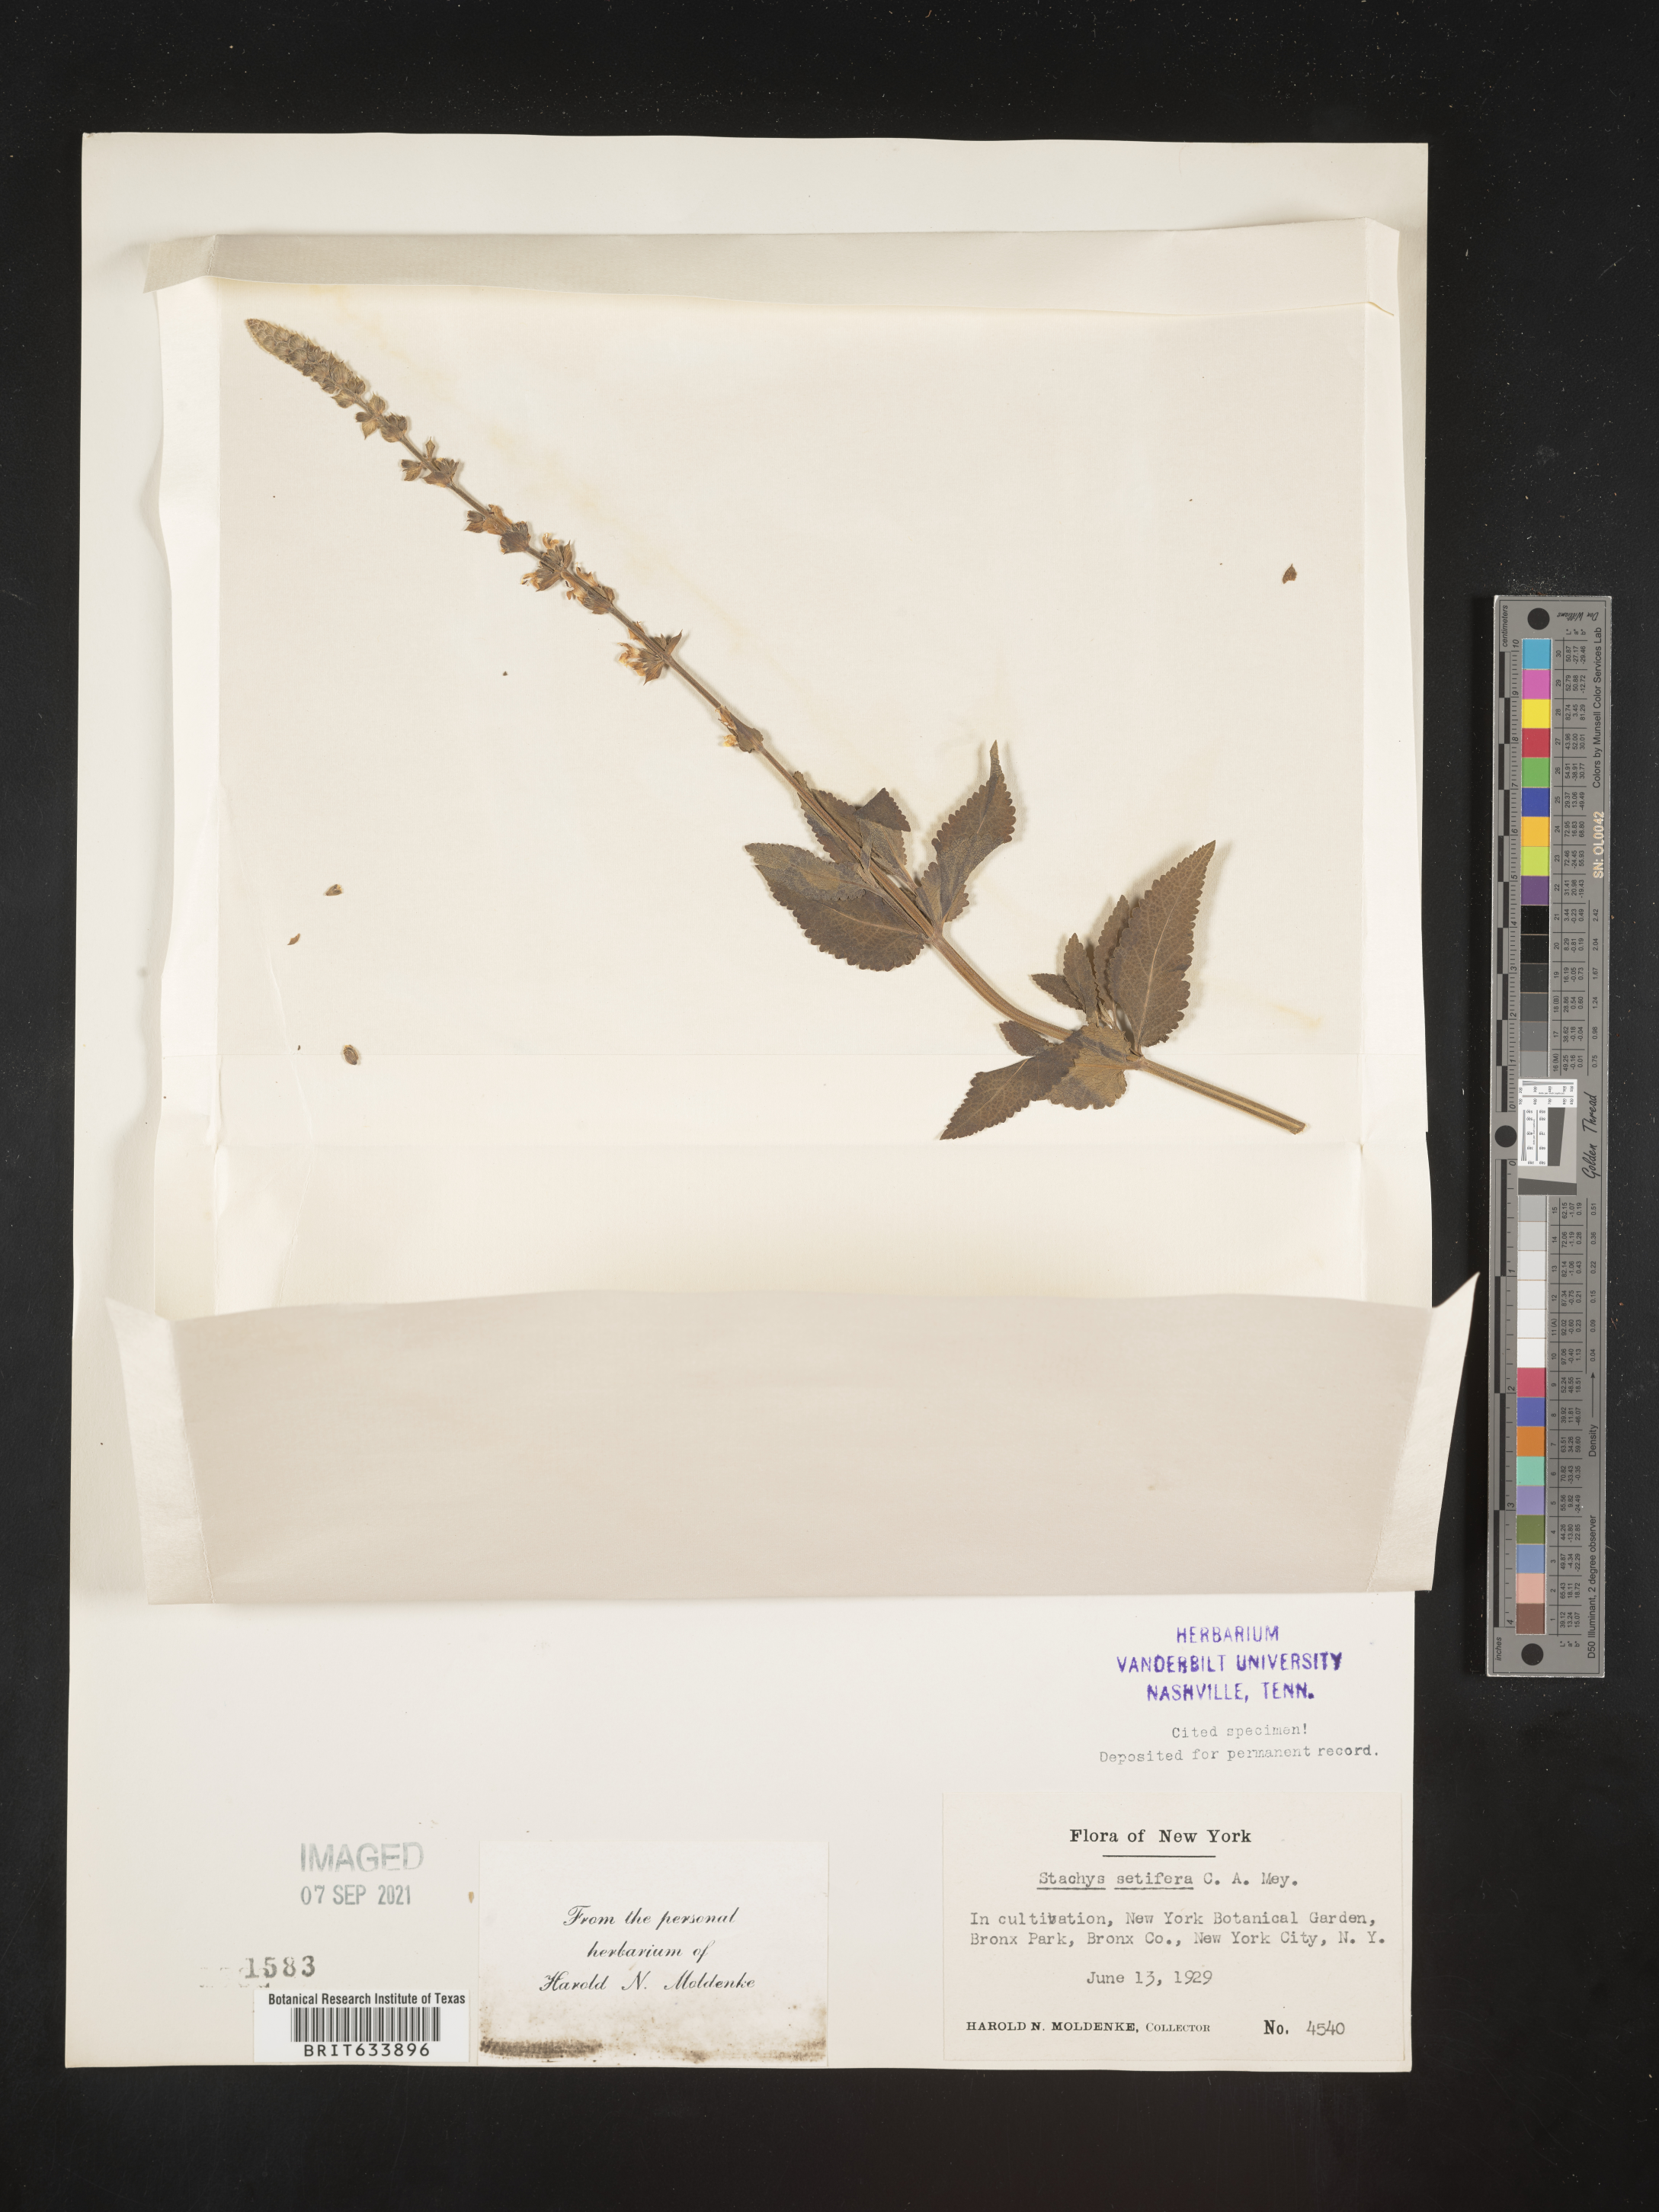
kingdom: Plantae
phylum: Tracheophyta
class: Magnoliopsida
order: Lamiales
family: Lamiaceae
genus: Stachys
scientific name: Stachys
